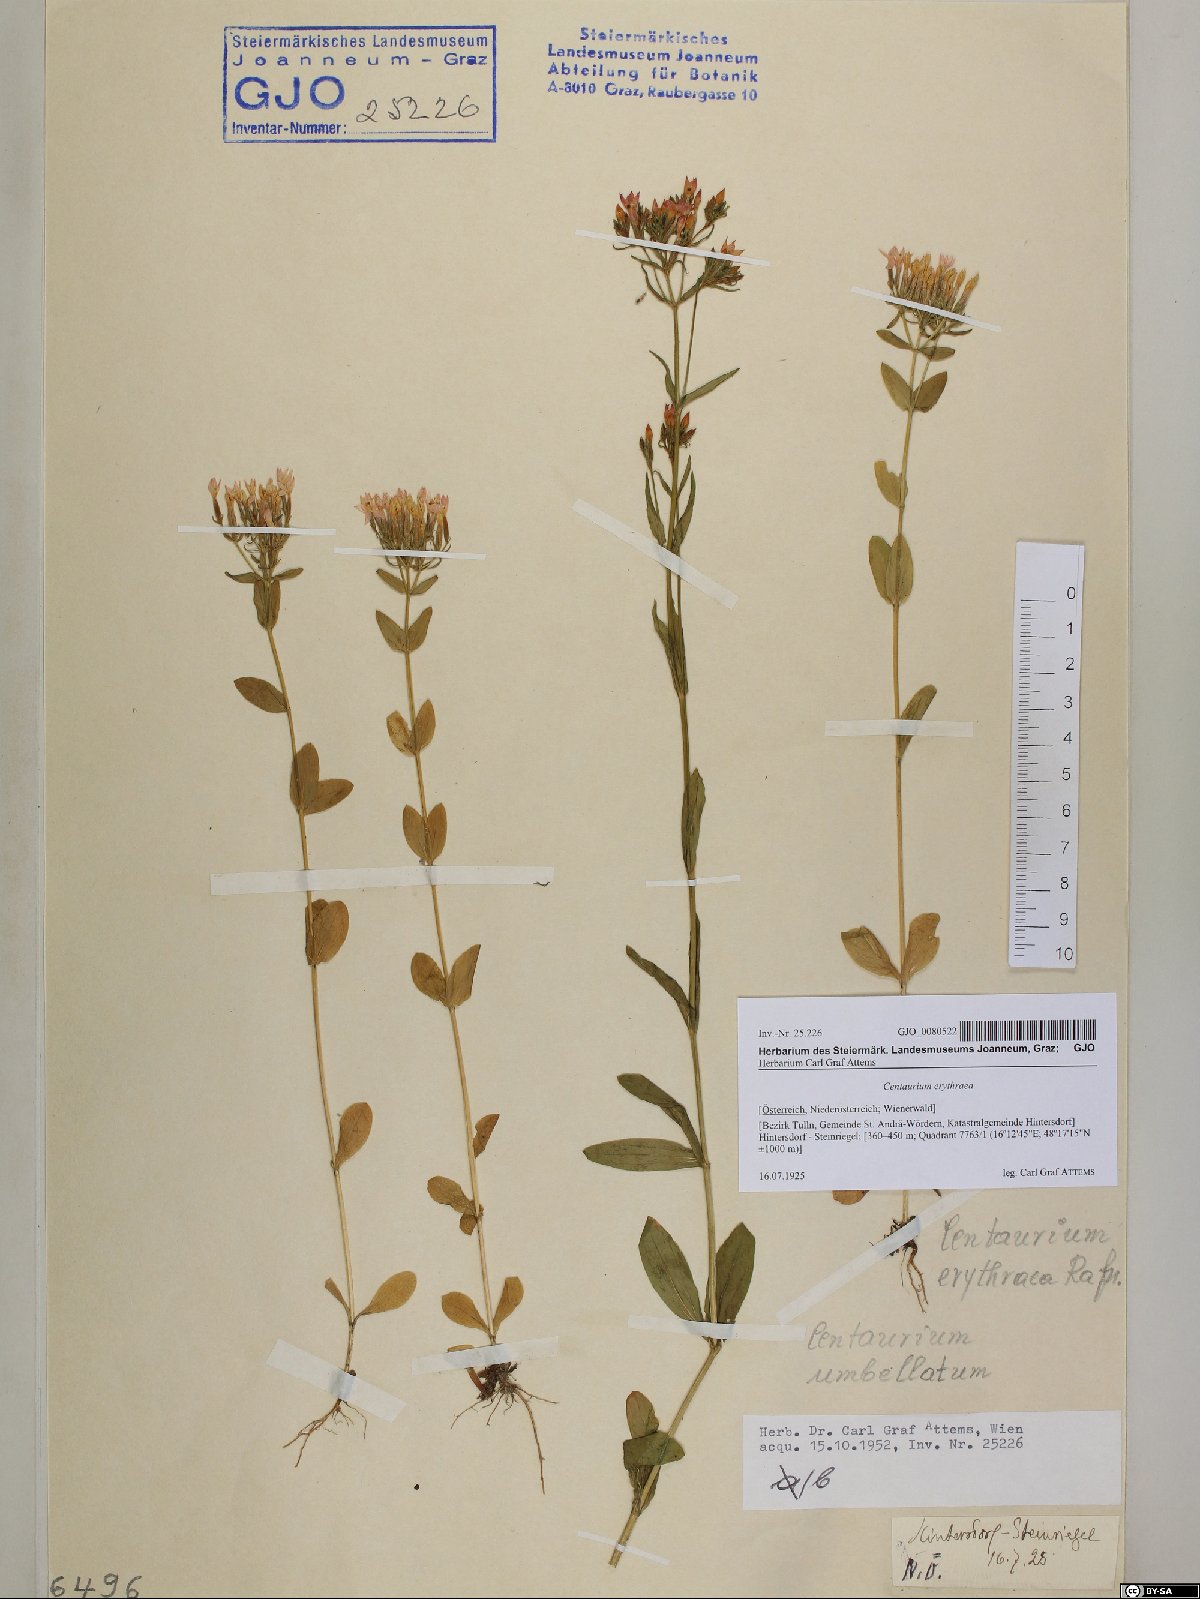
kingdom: Plantae
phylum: Tracheophyta
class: Magnoliopsida
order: Gentianales
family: Gentianaceae
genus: Centaurium
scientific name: Centaurium erythraea
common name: Common centaury
